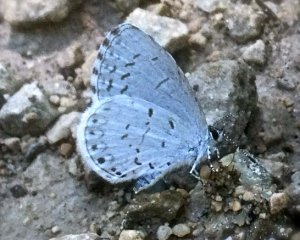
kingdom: Animalia
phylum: Arthropoda
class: Insecta
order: Lepidoptera
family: Lycaenidae
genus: Cyaniris
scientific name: Cyaniris neglecta
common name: Summer Azure
